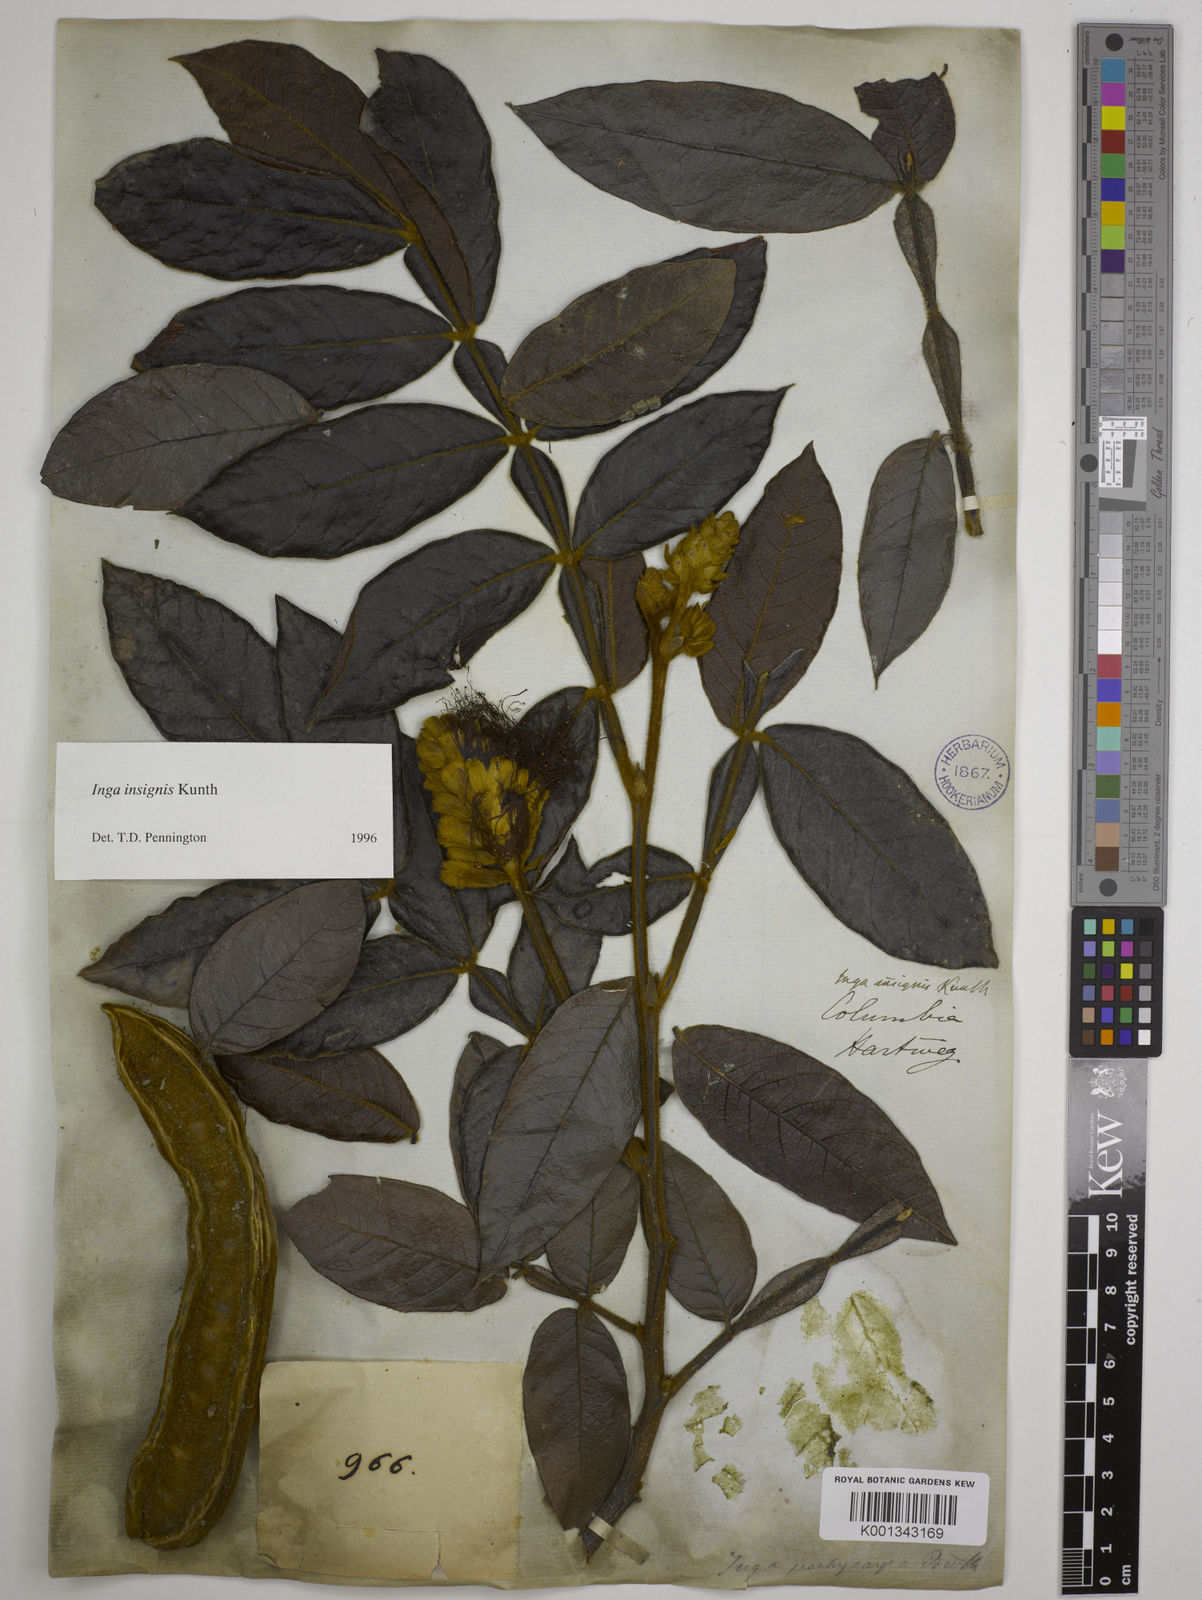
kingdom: Plantae
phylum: Tracheophyta
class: Magnoliopsida
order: Fabales
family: Fabaceae
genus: Inga
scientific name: Inga insignis
